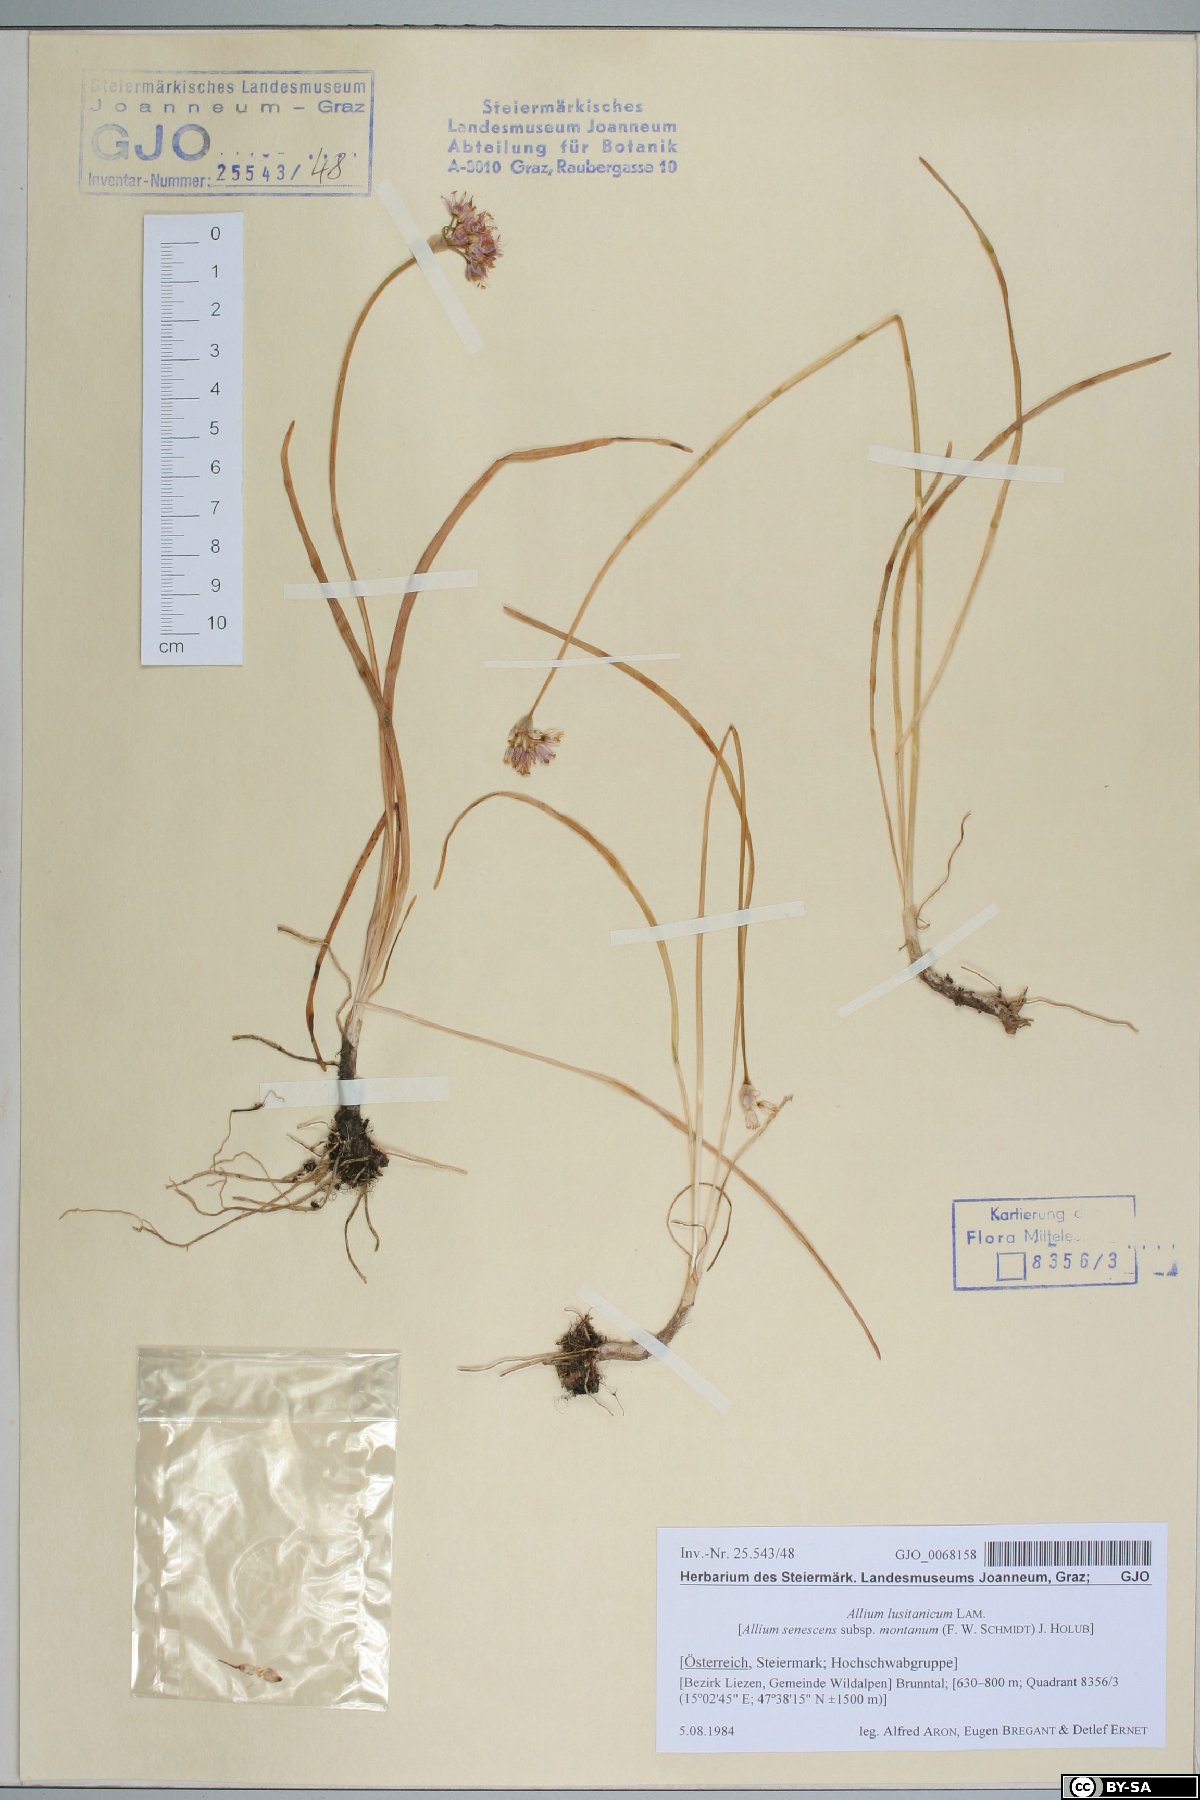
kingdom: Plantae
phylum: Tracheophyta
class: Liliopsida
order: Asparagales
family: Amaryllidaceae
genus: Allium
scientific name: Allium lusitanicum
